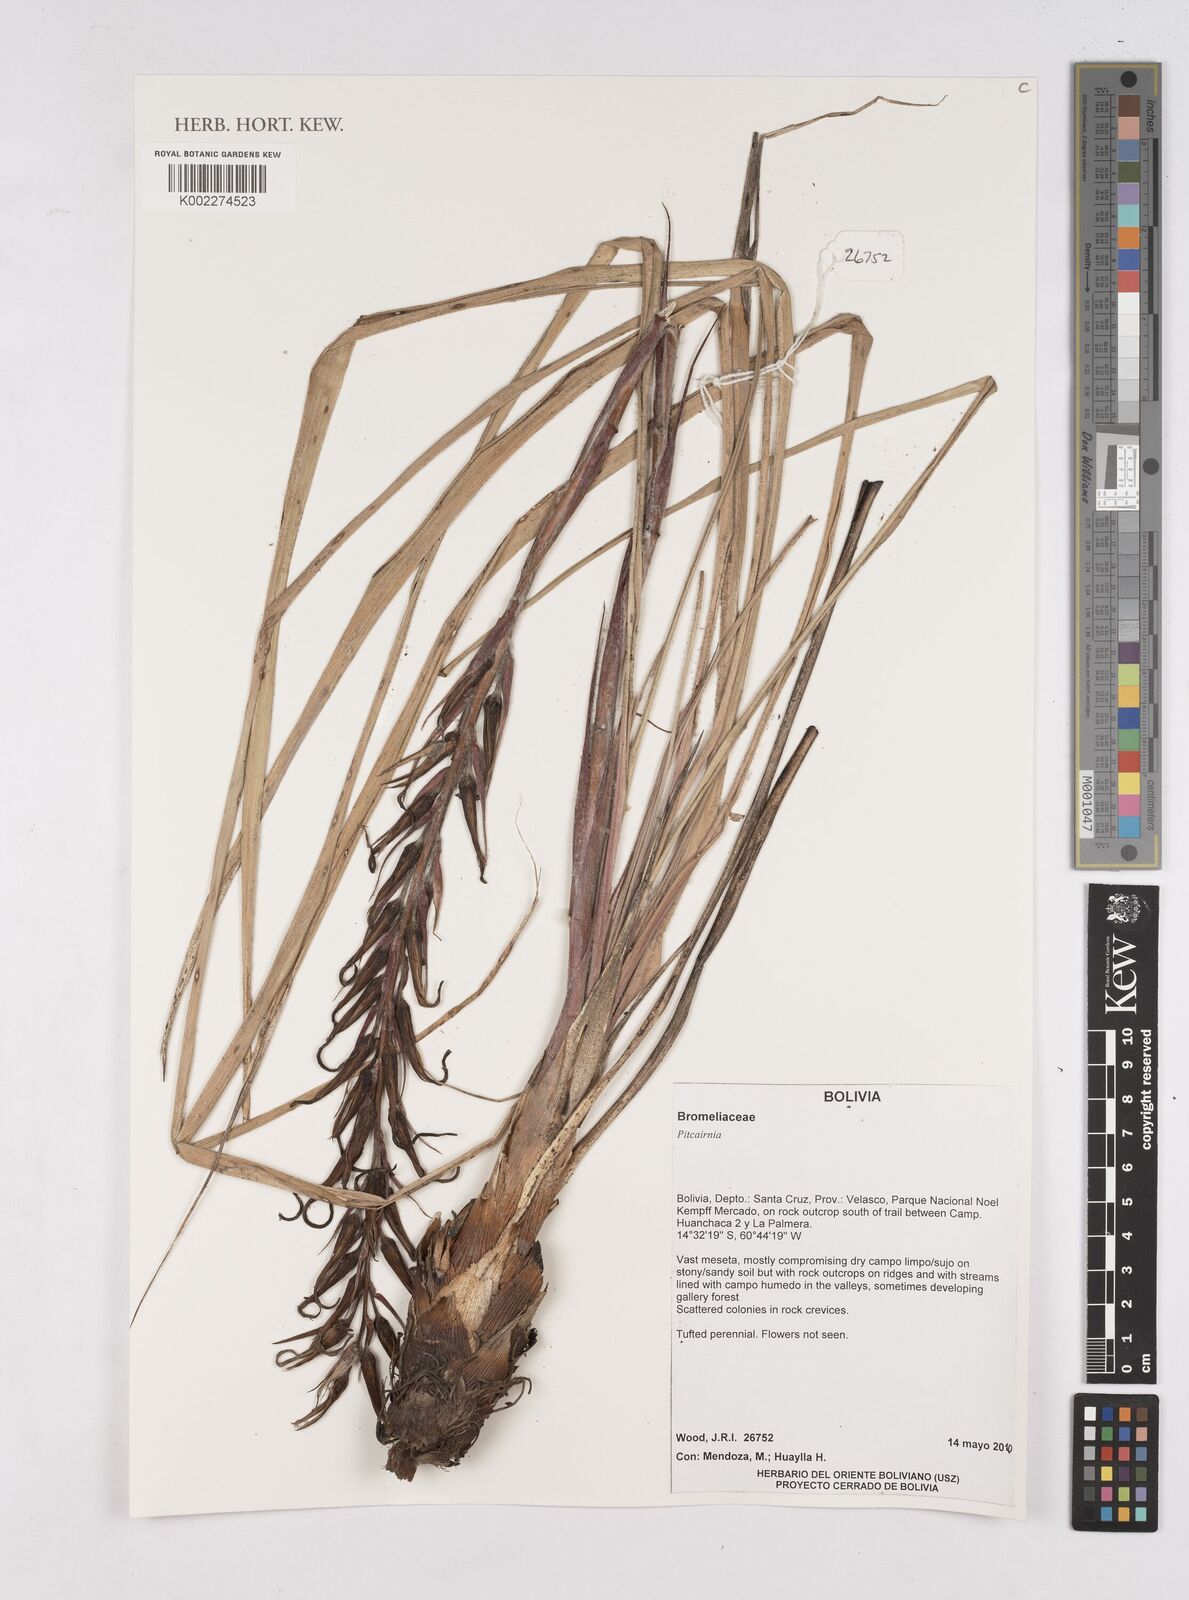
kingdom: Plantae
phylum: Tracheophyta
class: Liliopsida
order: Poales
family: Bromeliaceae
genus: Pitcairnia
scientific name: Pitcairnia
